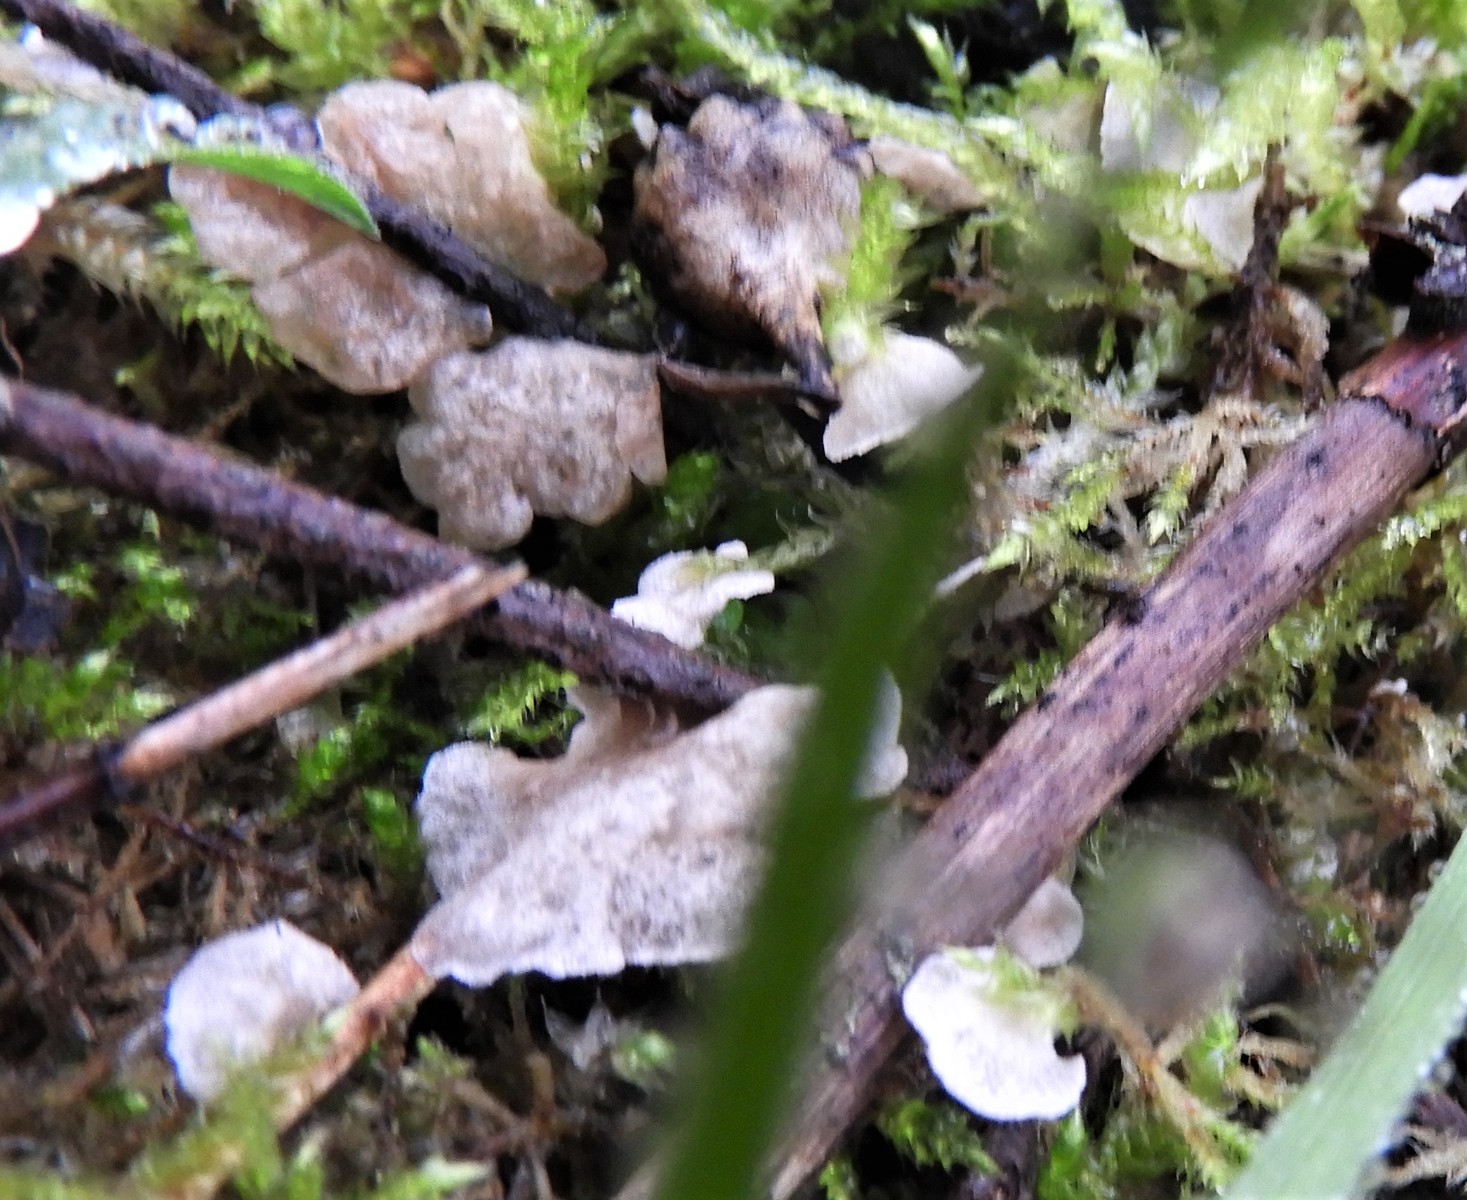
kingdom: Fungi
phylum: Basidiomycota
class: Agaricomycetes
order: Agaricales
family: Hygrophoraceae
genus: Arrhenia
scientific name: Arrhenia retiruga
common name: lille fontænehat
